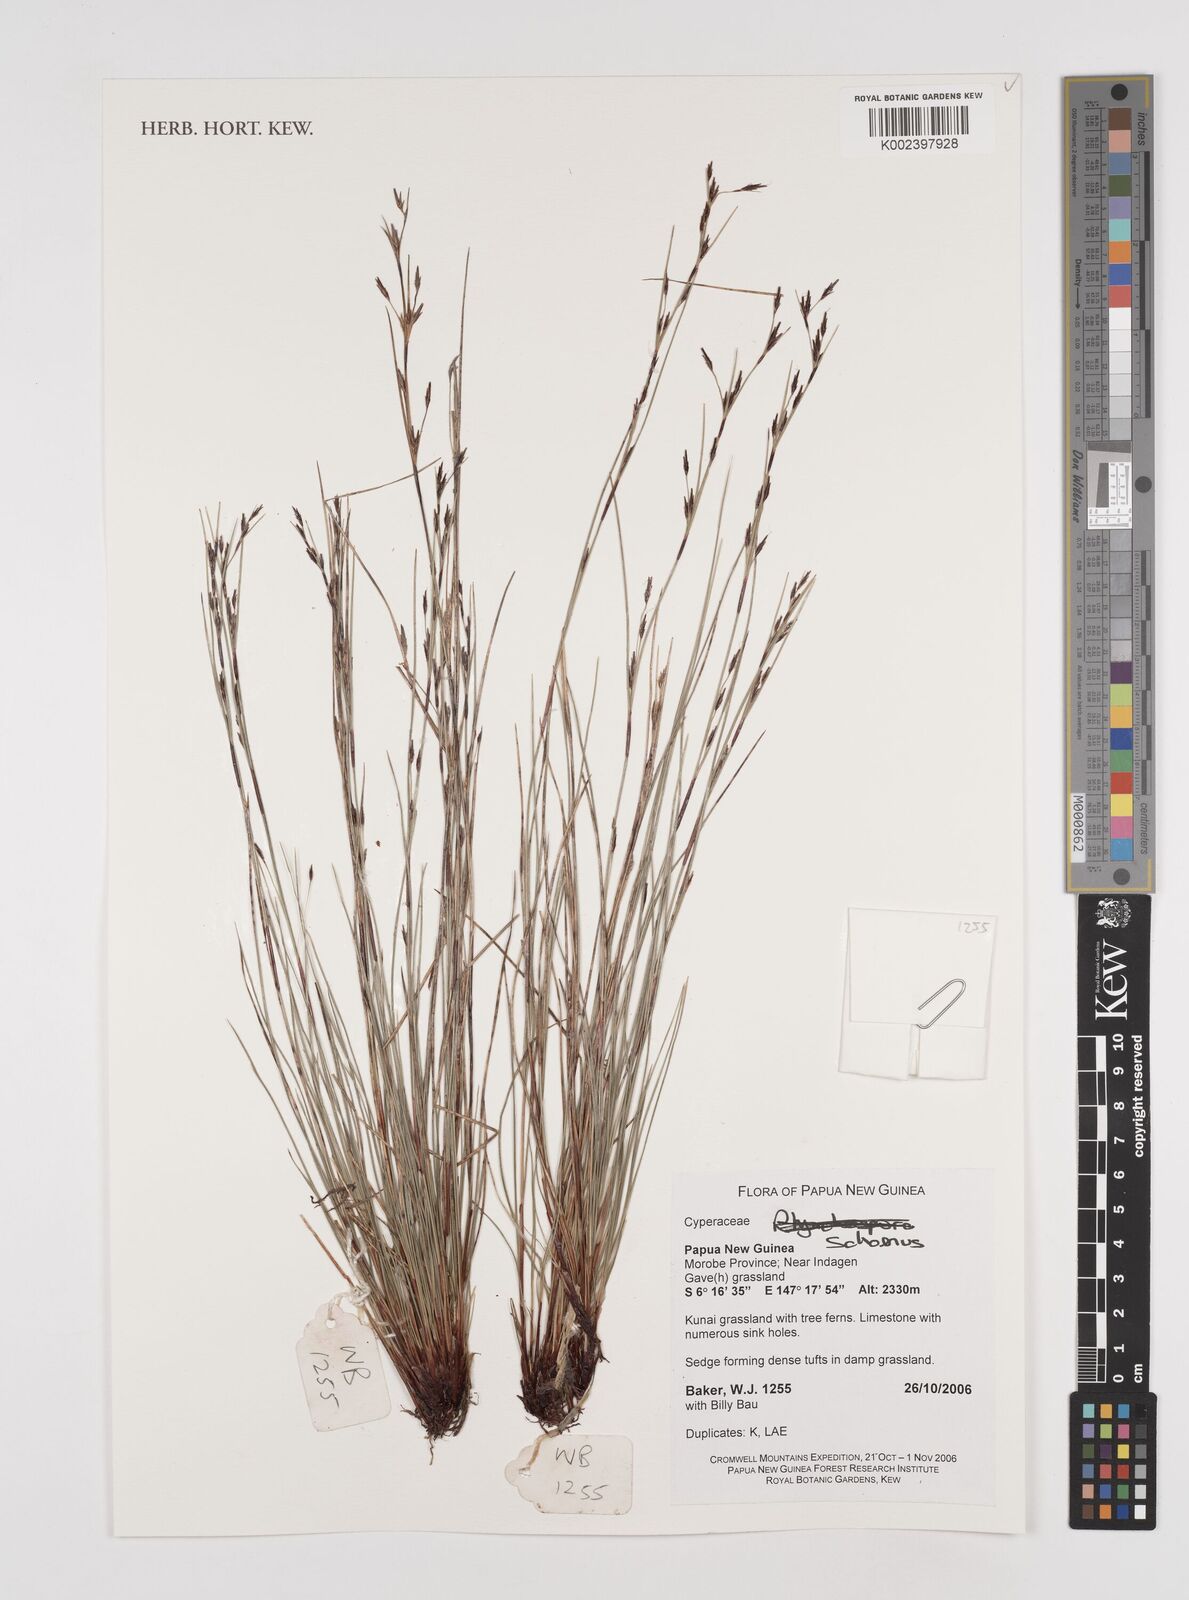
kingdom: Plantae
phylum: Tracheophyta
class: Liliopsida
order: Poales
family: Cyperaceae
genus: Schoenus
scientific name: Schoenus
